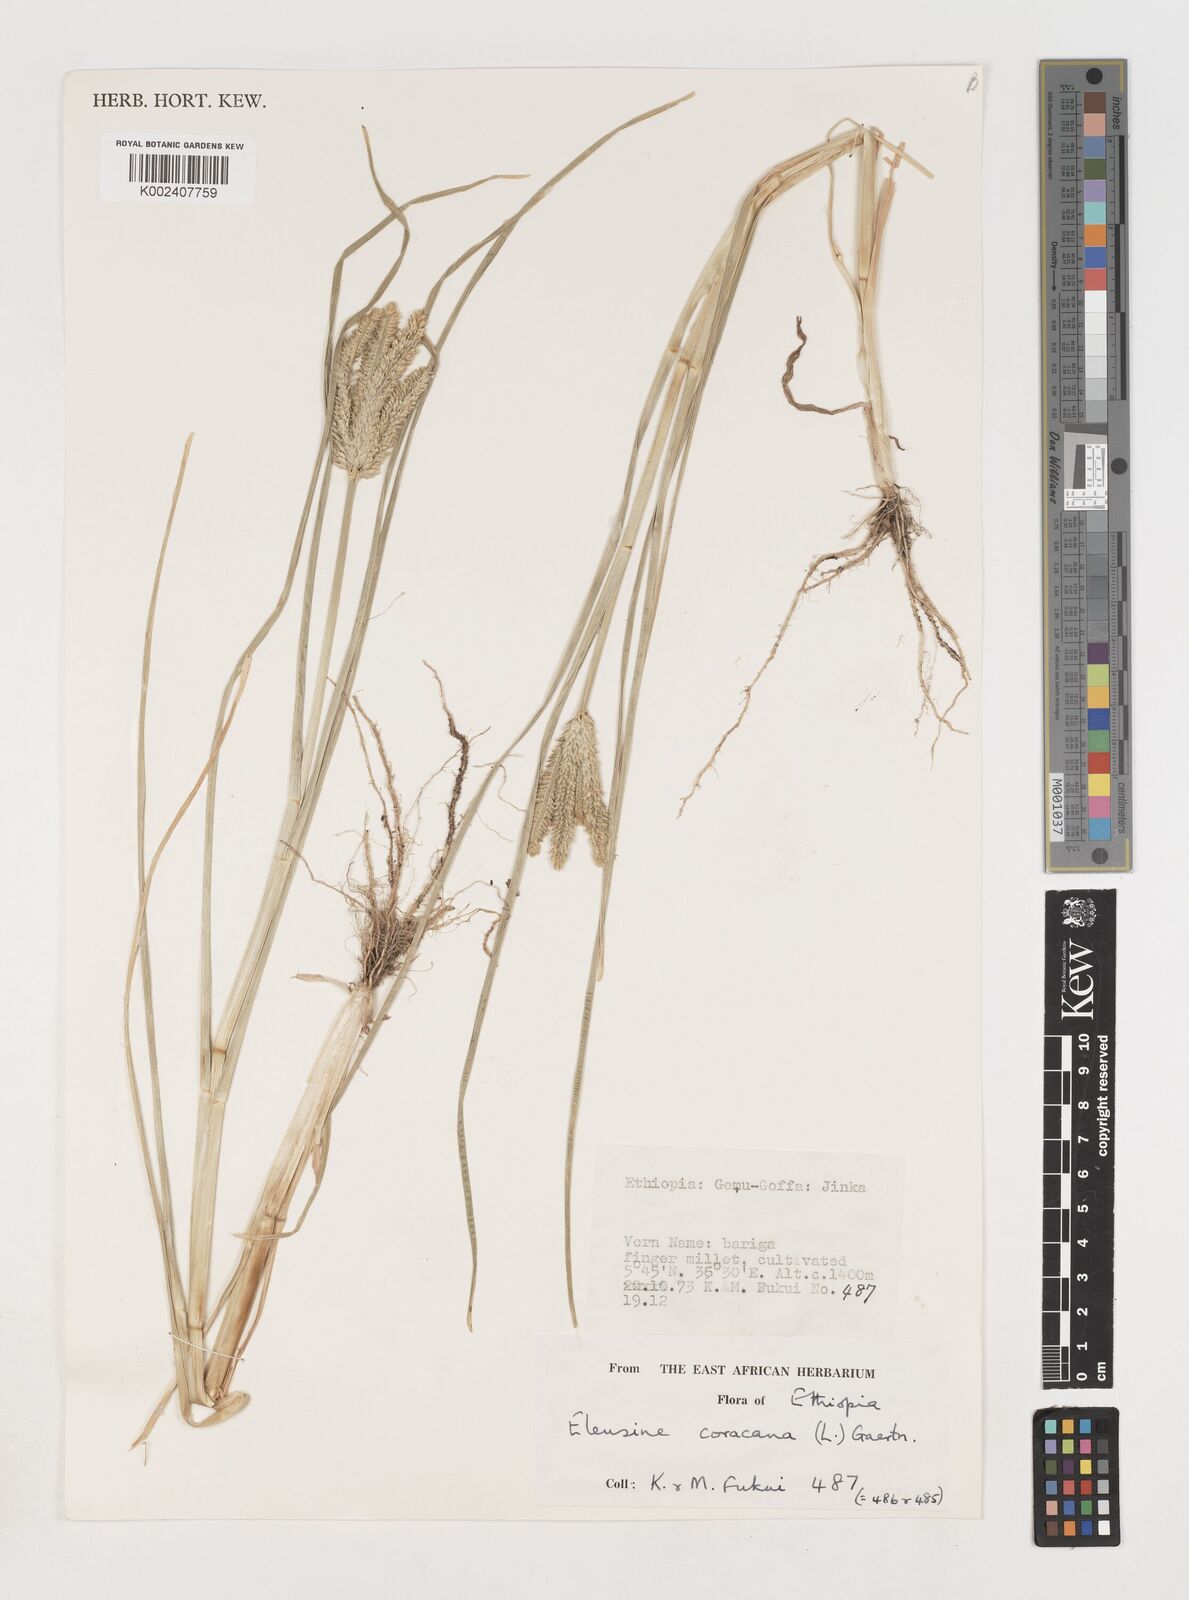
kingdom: Plantae
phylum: Tracheophyta
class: Liliopsida
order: Poales
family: Poaceae
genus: Eleusine
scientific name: Eleusine coracana
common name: Finger millet
